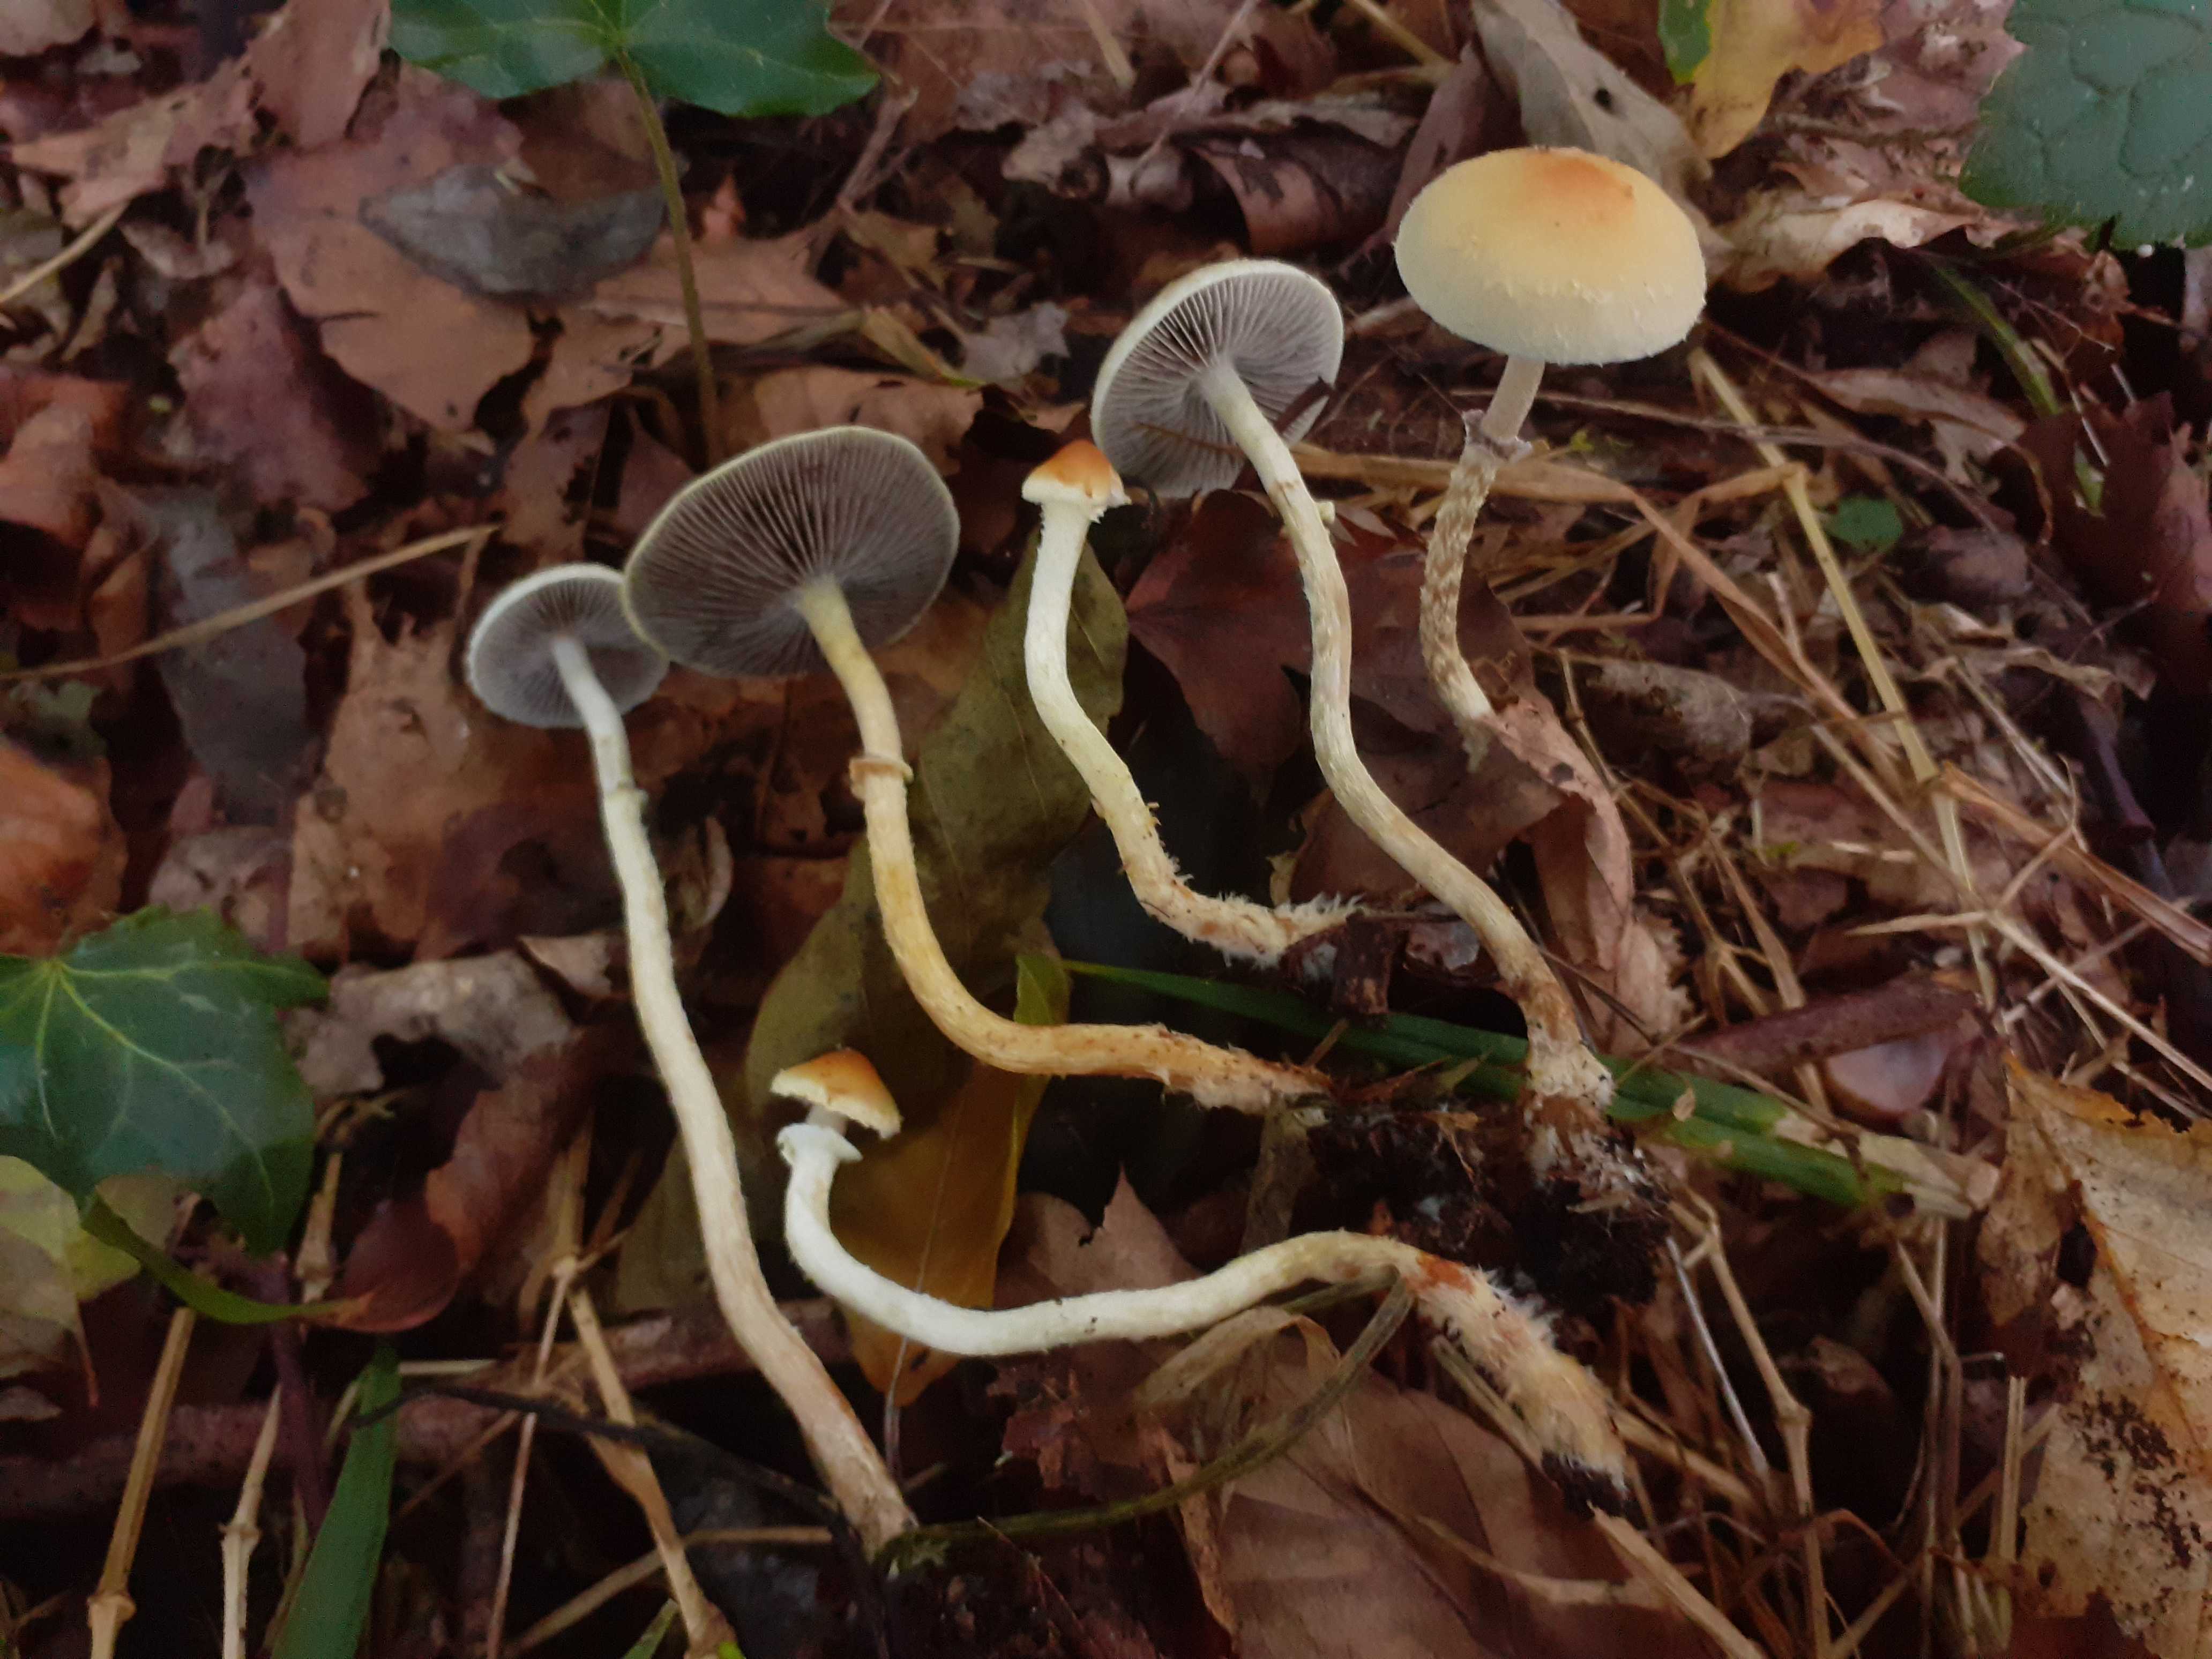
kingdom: Fungi
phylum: Basidiomycota
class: Agaricomycetes
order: Agaricales
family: Strophariaceae
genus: Leratiomyces
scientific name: Leratiomyces squamosus
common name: skællet bredblad
